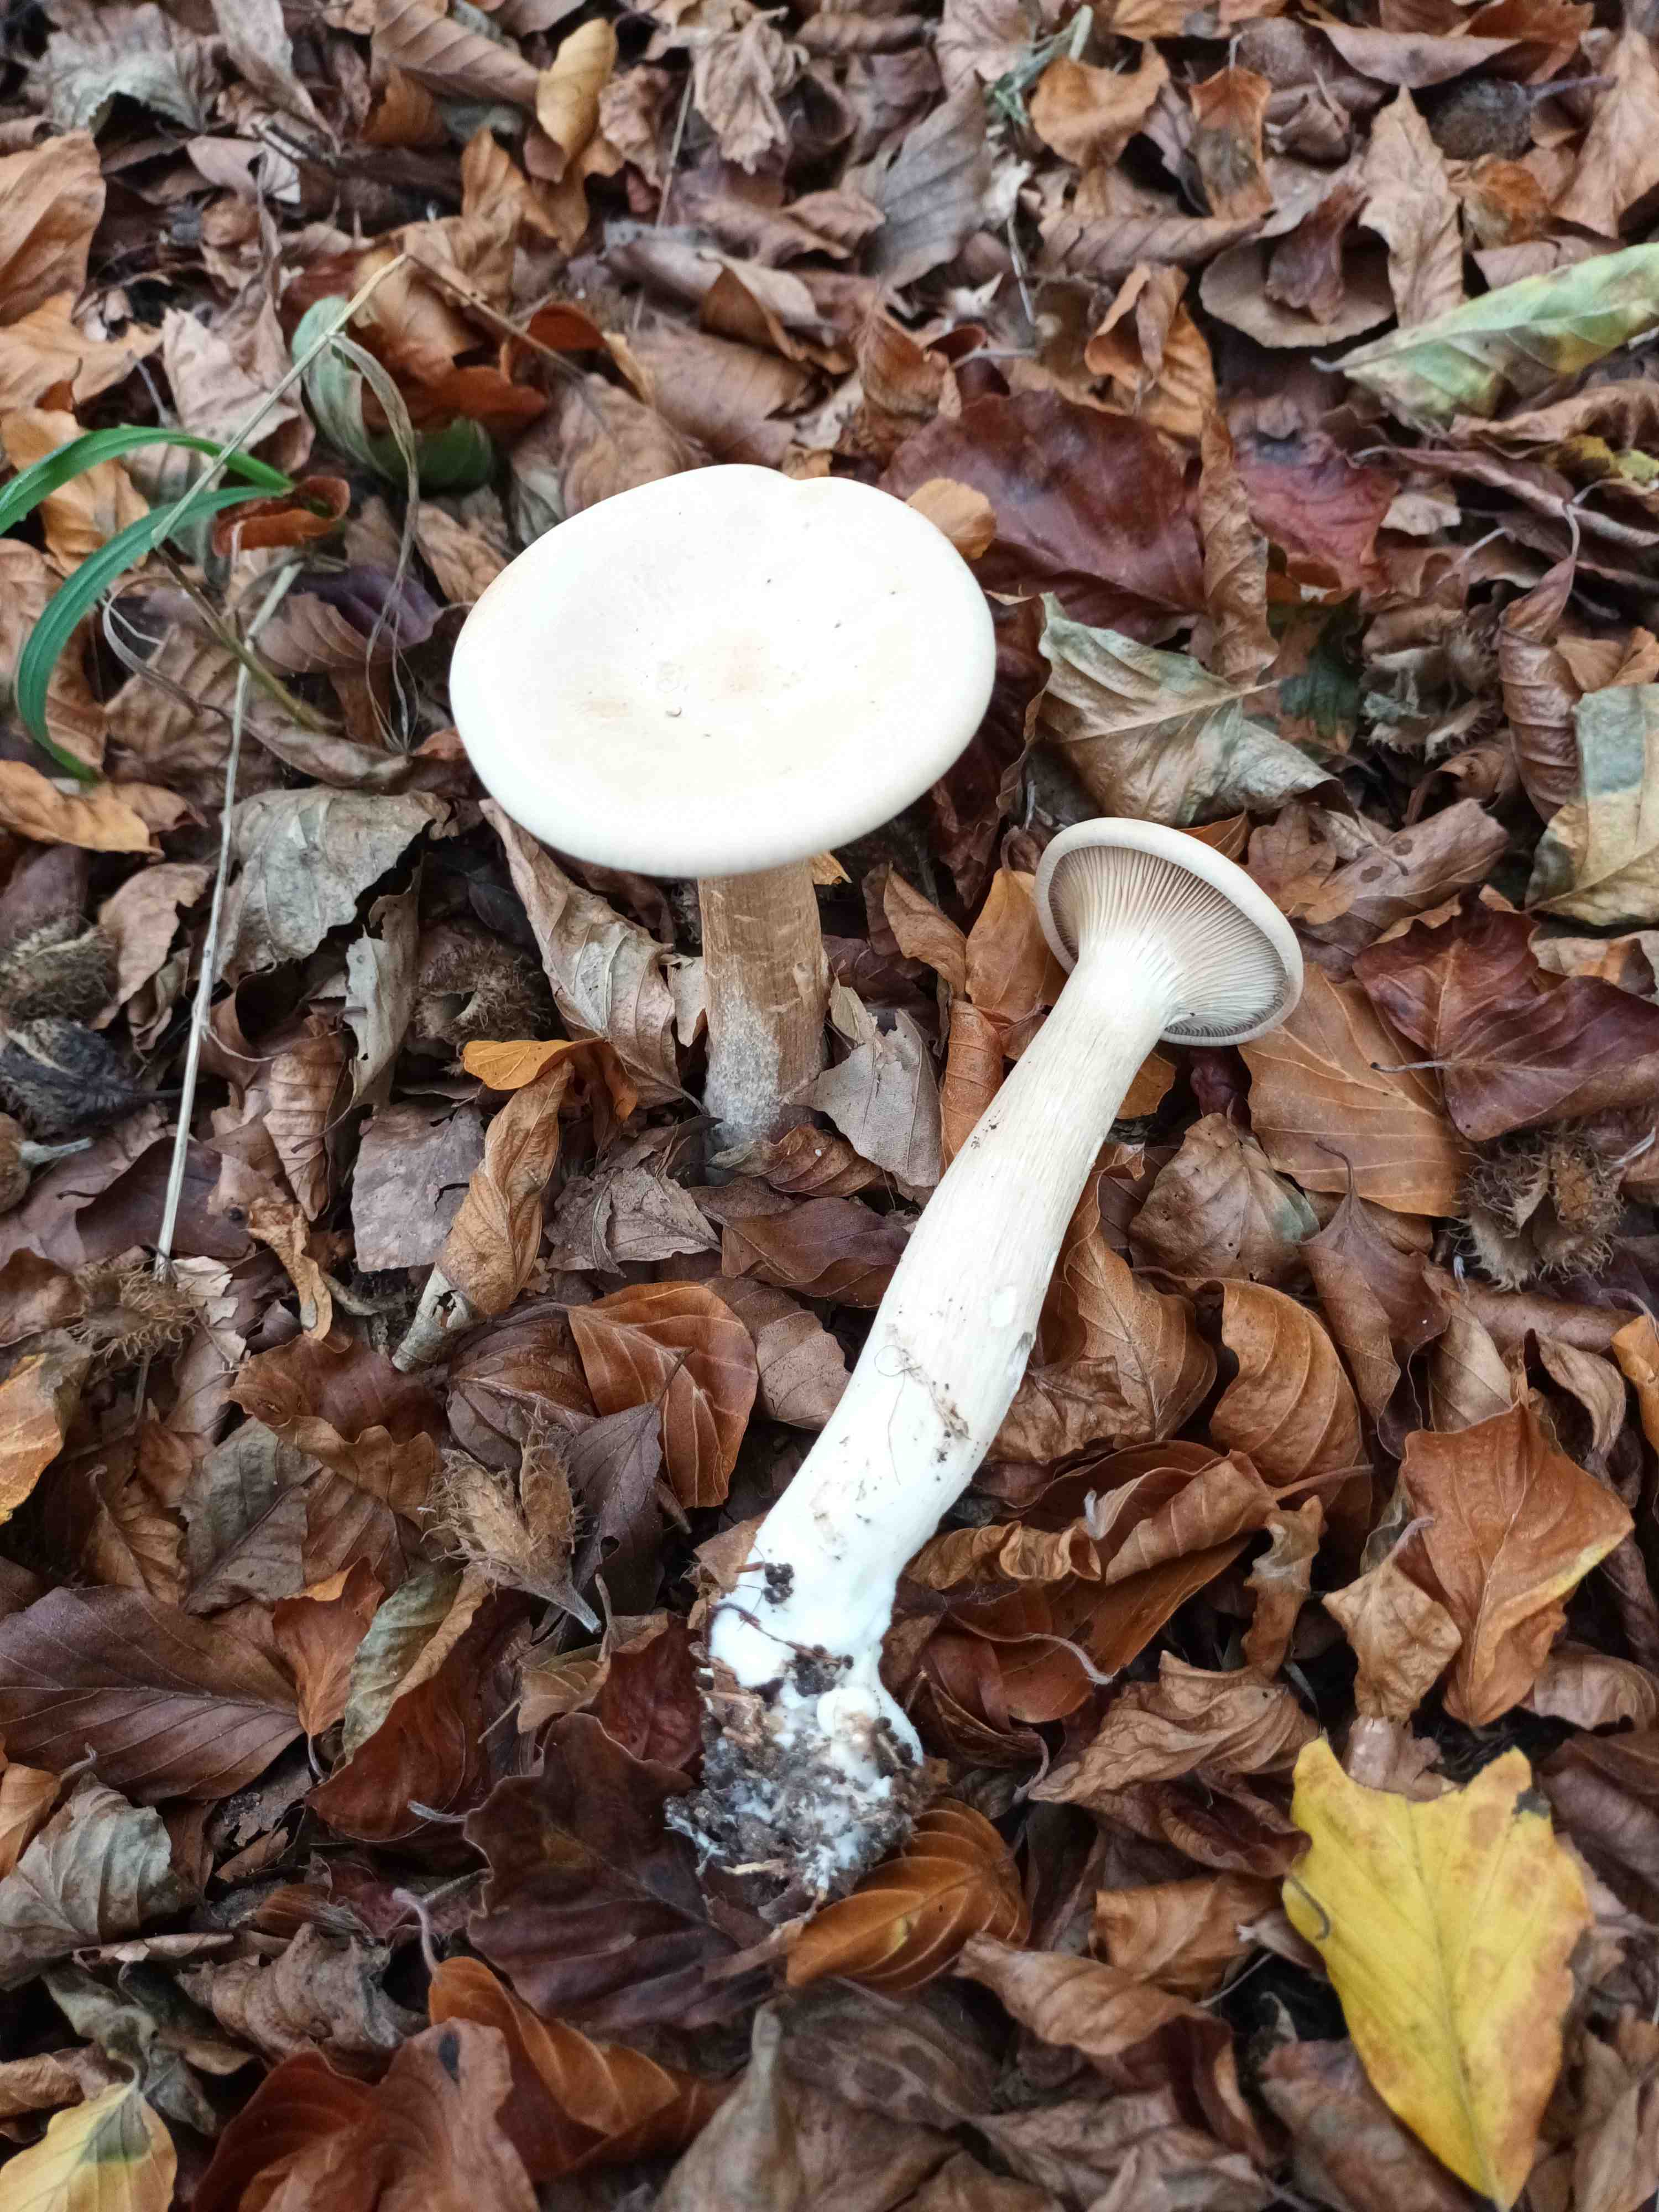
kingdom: Fungi
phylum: Basidiomycota
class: Agaricomycetes
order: Agaricales
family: Tricholomataceae
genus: Infundibulicybe
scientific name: Infundibulicybe geotropa
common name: stor tragthat
